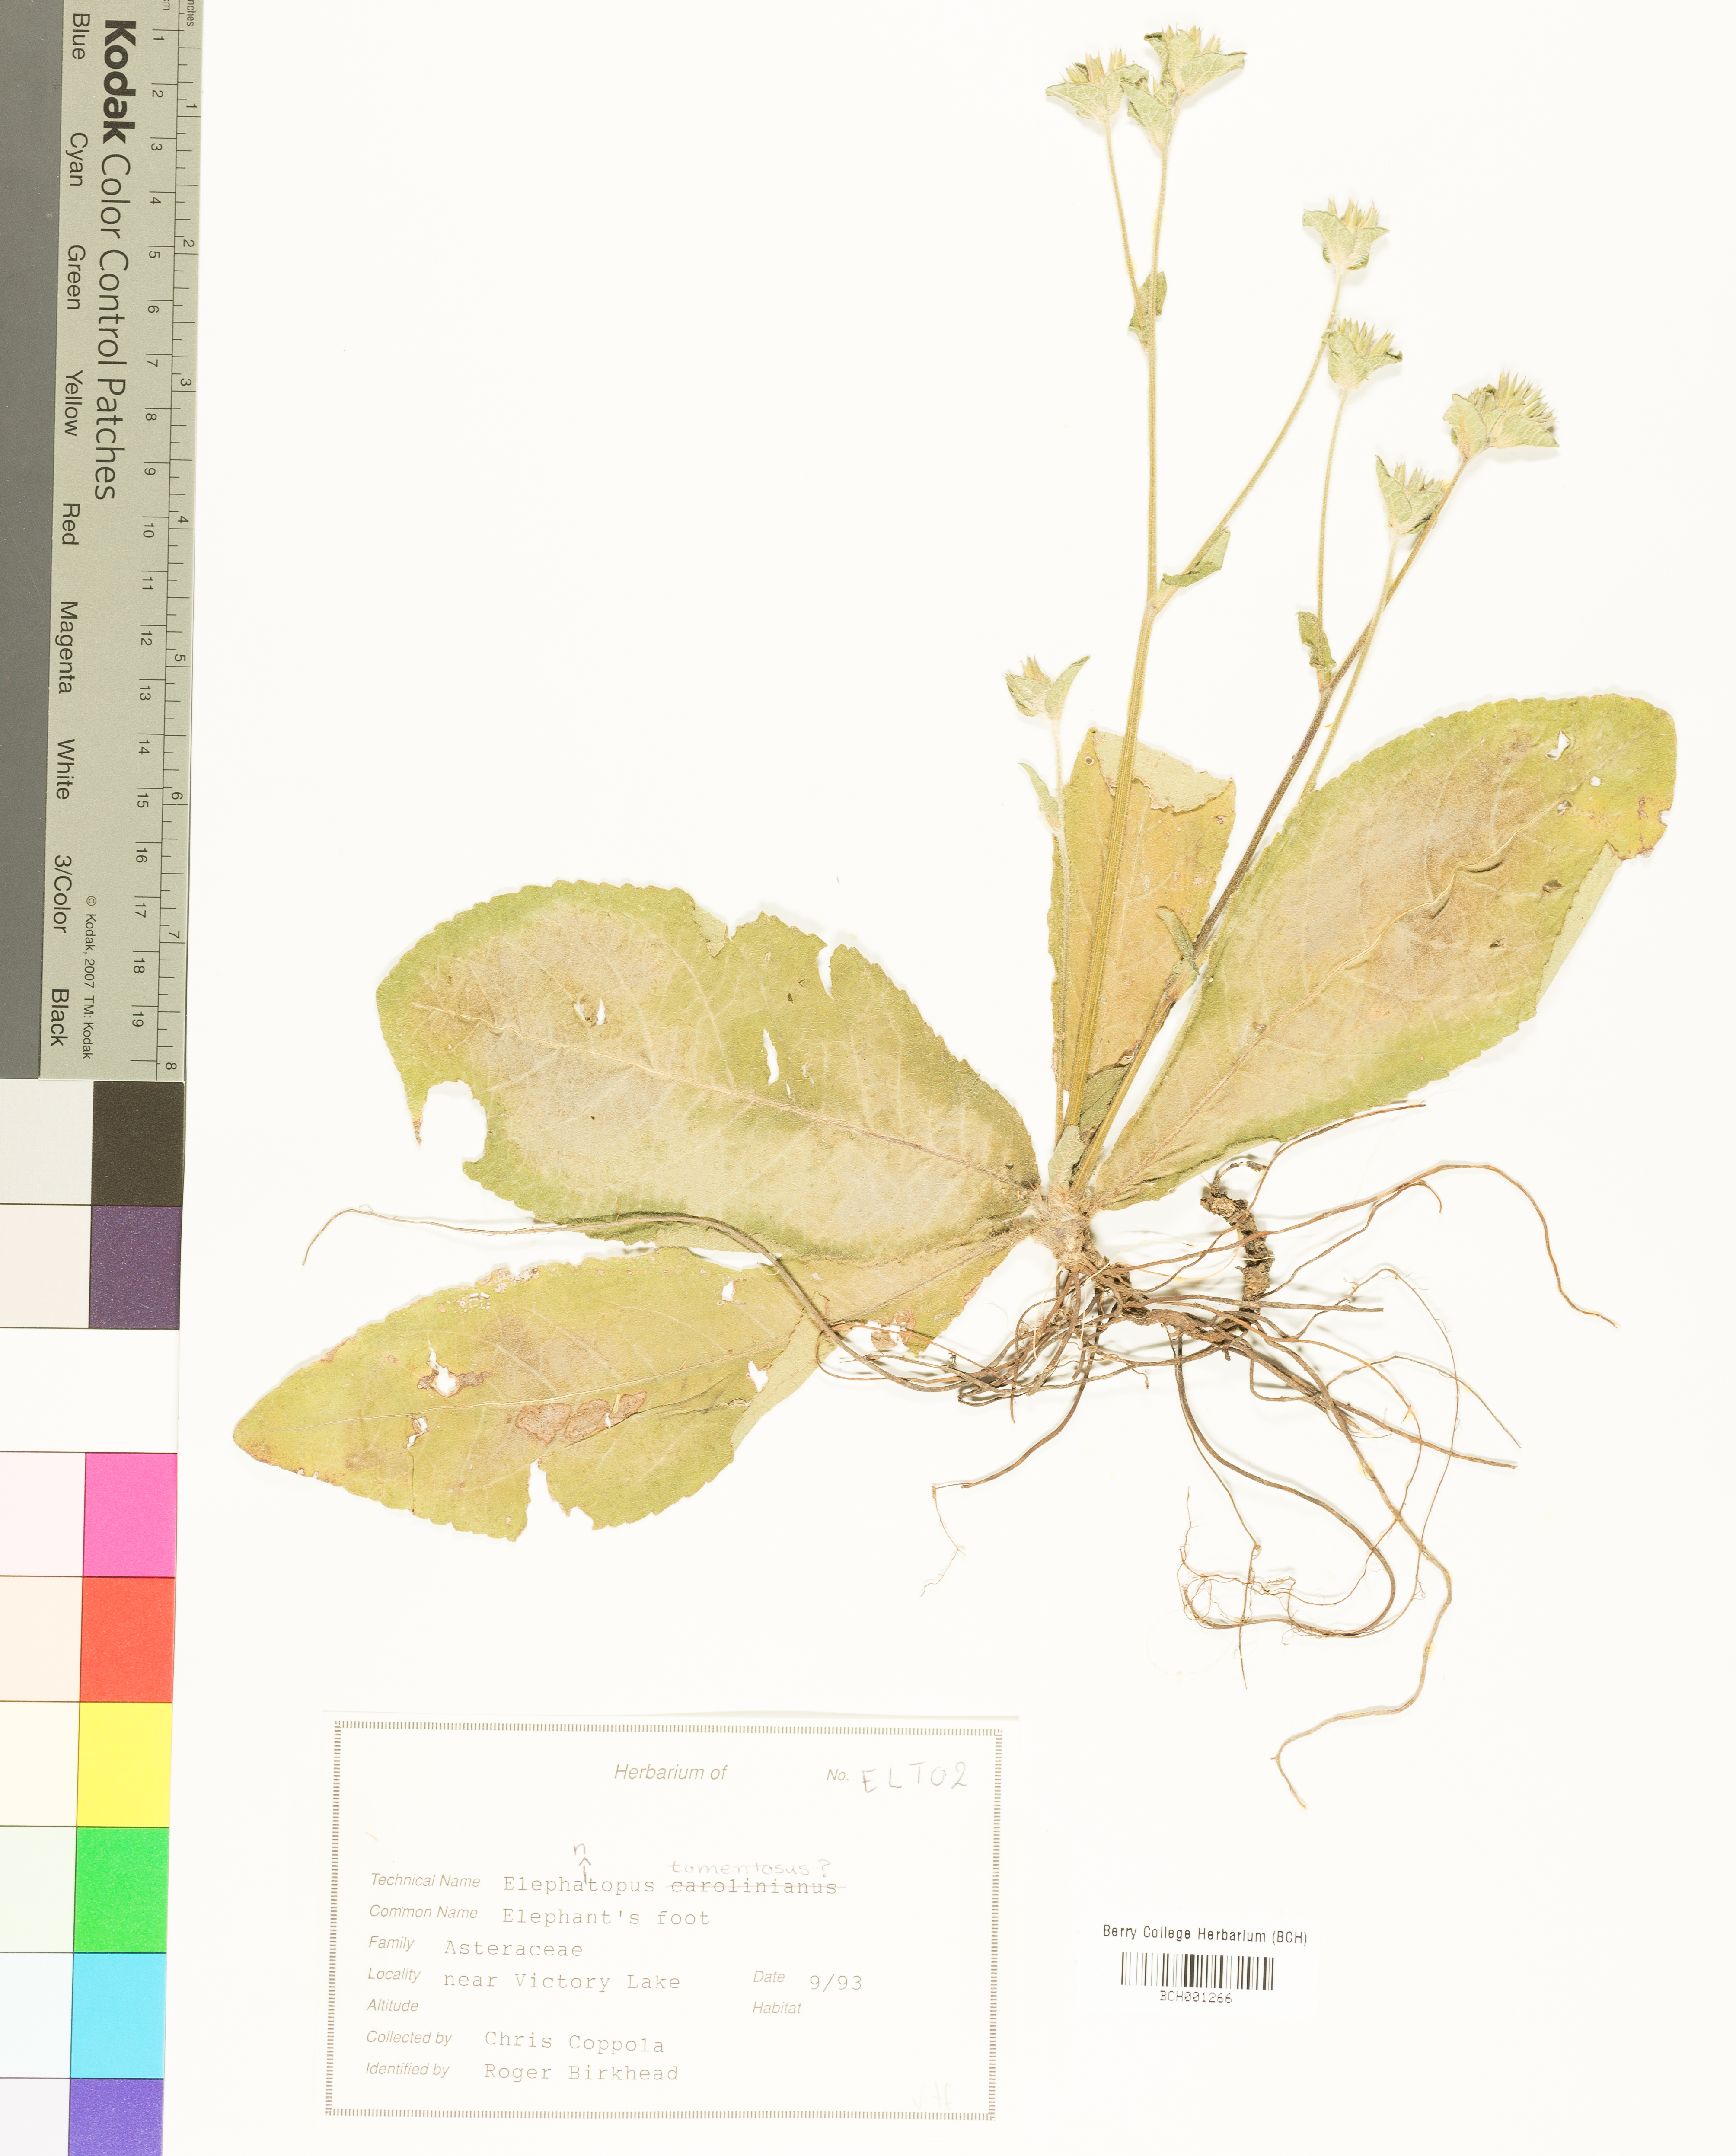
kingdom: Plantae
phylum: Tracheophyta
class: Magnoliopsida
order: Asterales
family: Asteraceae
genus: Elephantopus
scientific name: Elephantopus tomentosus
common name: Tobacco-weed
